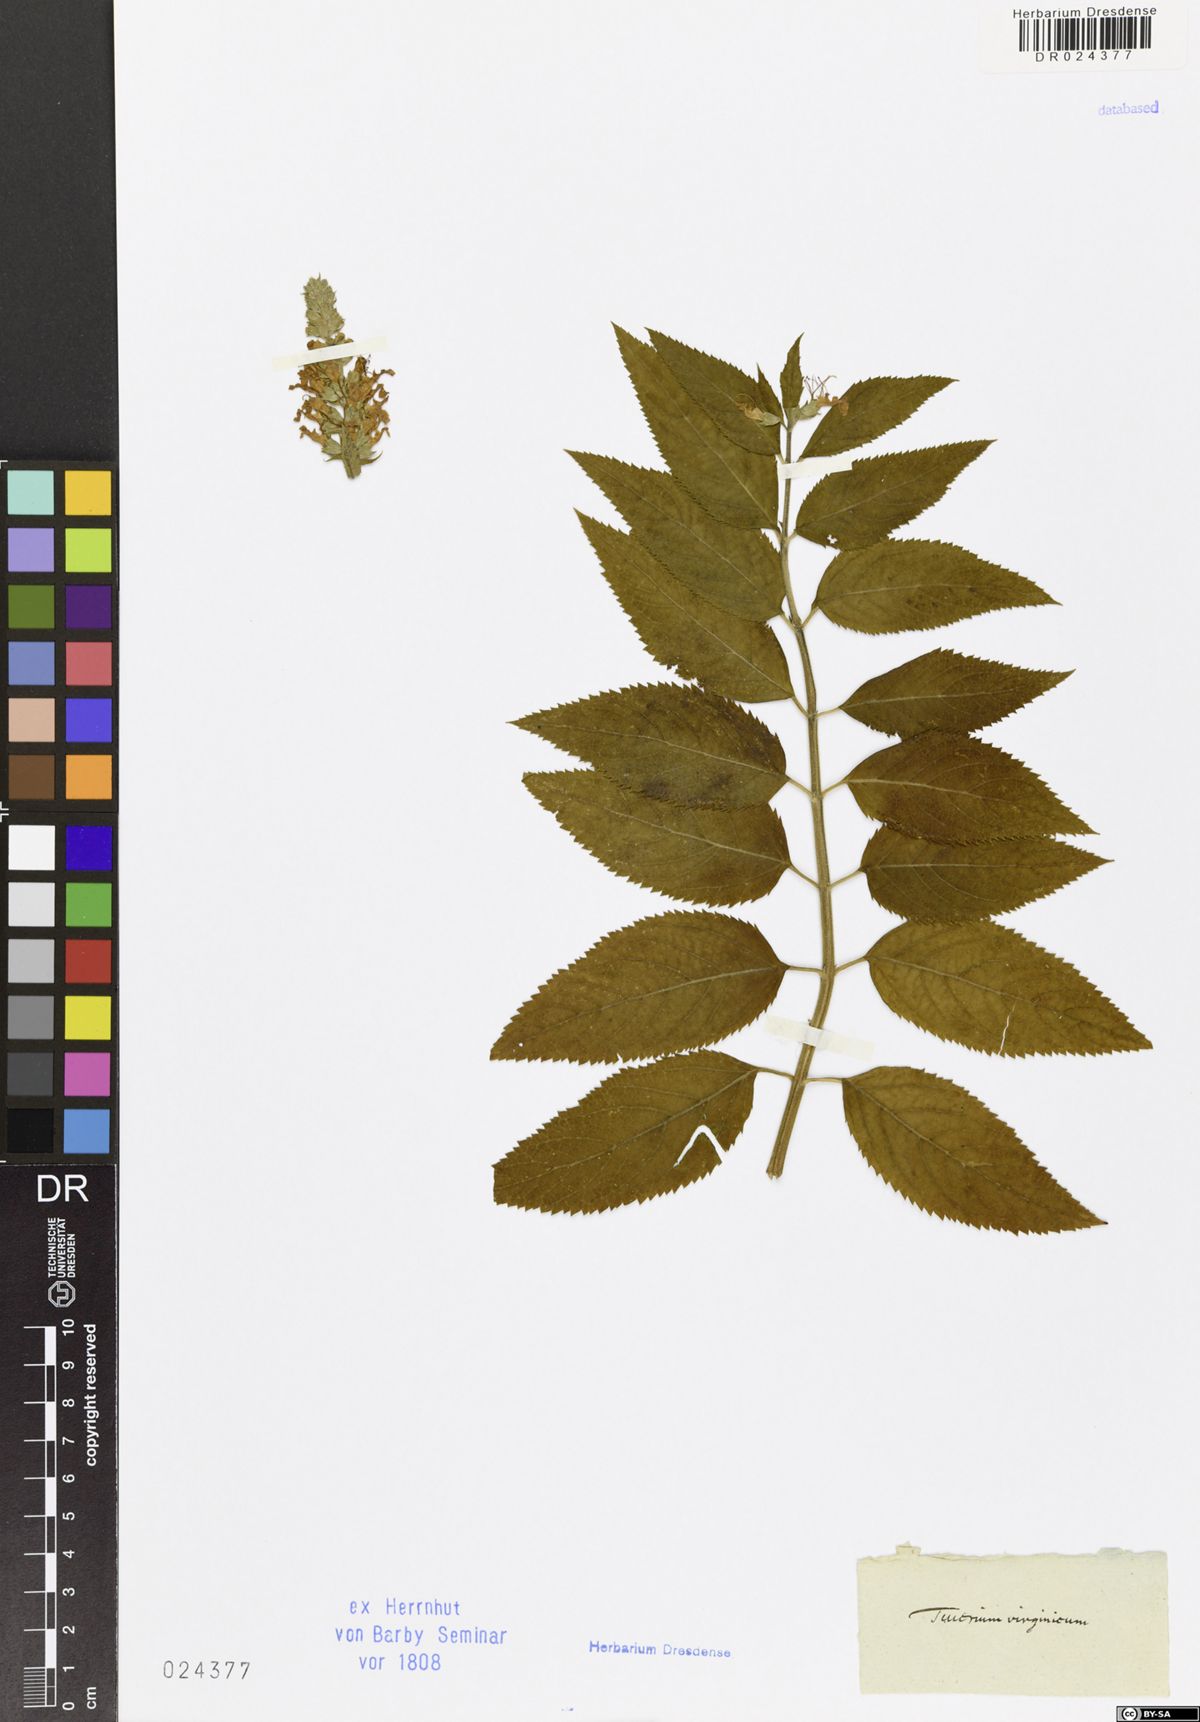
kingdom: Plantae
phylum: Tracheophyta
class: Magnoliopsida
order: Lamiales
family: Lamiaceae
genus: Teucrium
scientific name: Teucrium canadense
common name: American germander
